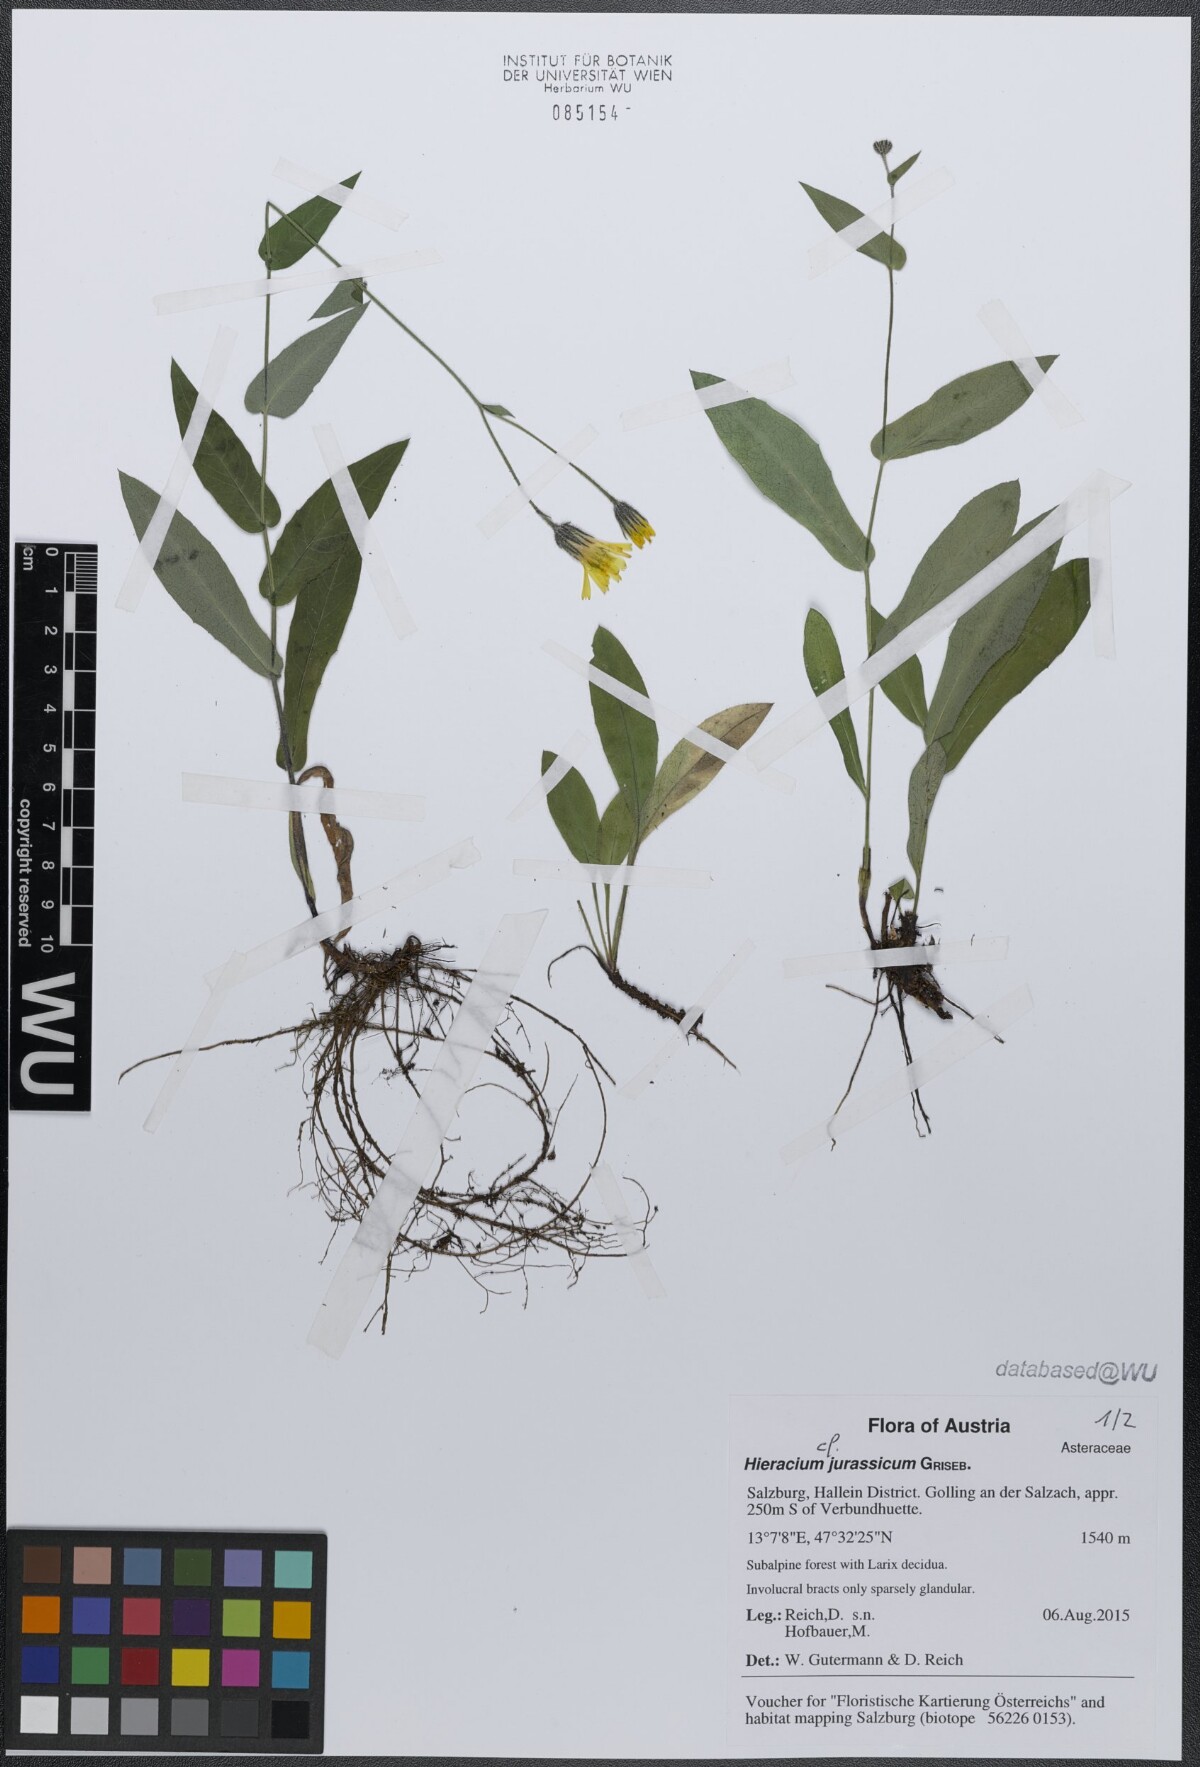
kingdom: Plantae
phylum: Tracheophyta
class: Magnoliopsida
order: Asterales
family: Asteraceae
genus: Hieracium
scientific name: Hieracium jurassicum
